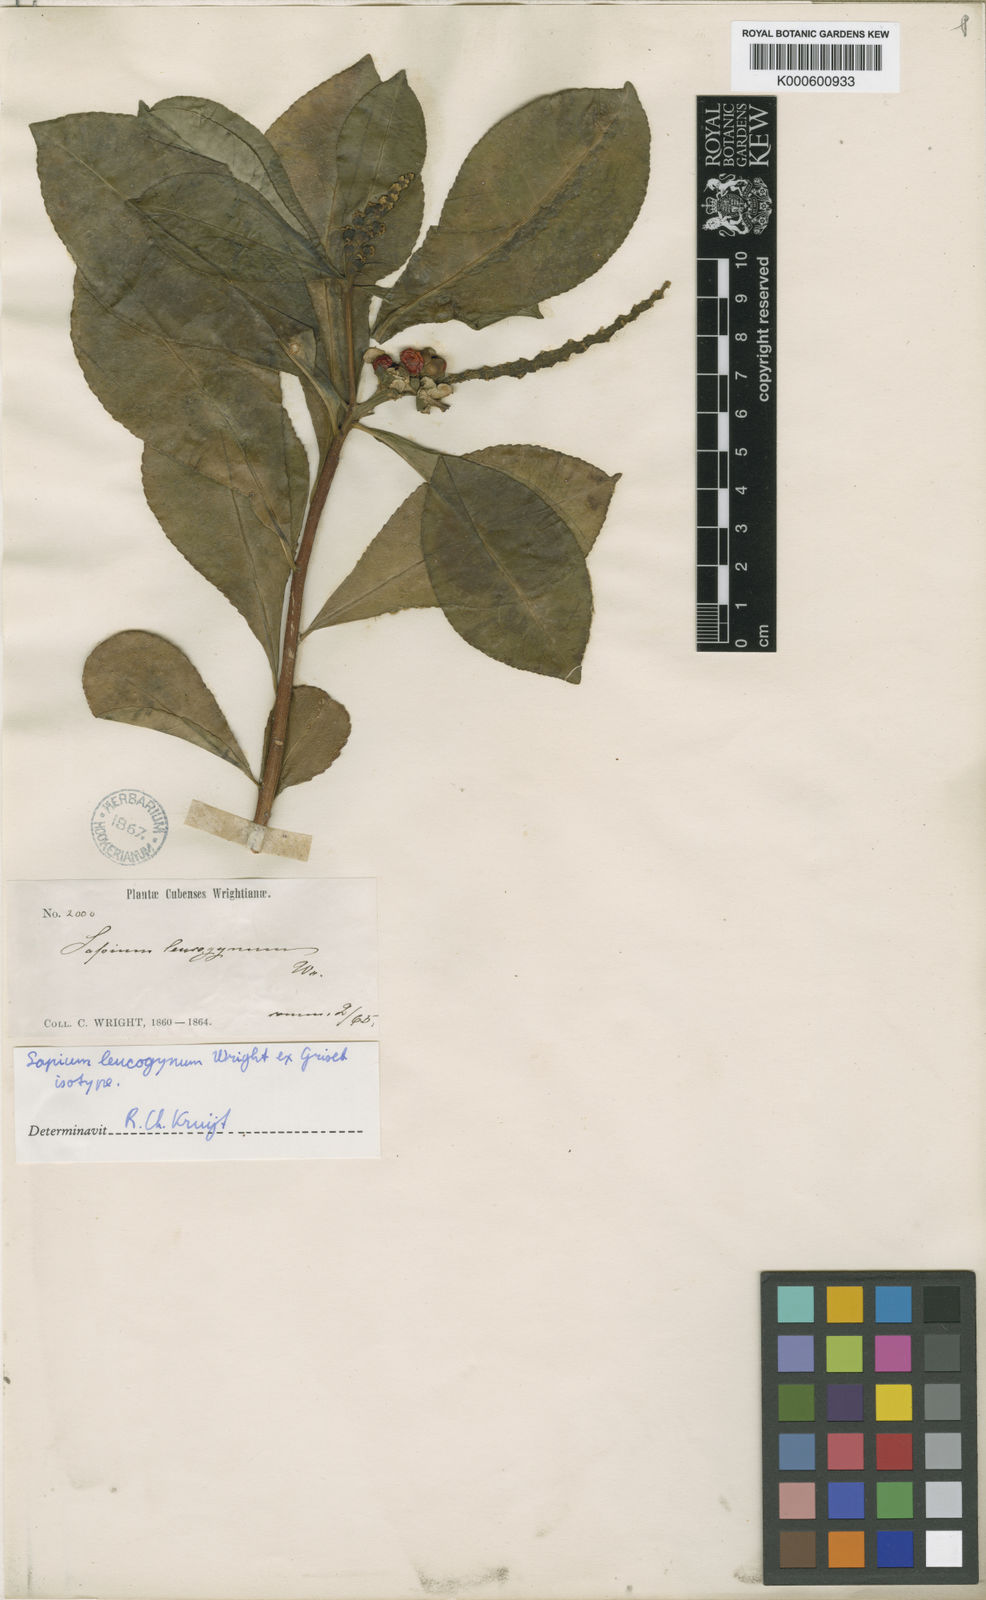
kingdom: Plantae
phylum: Tracheophyta
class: Magnoliopsida
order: Malpighiales
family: Euphorbiaceae
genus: Sapium
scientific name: Sapium leucogynum
